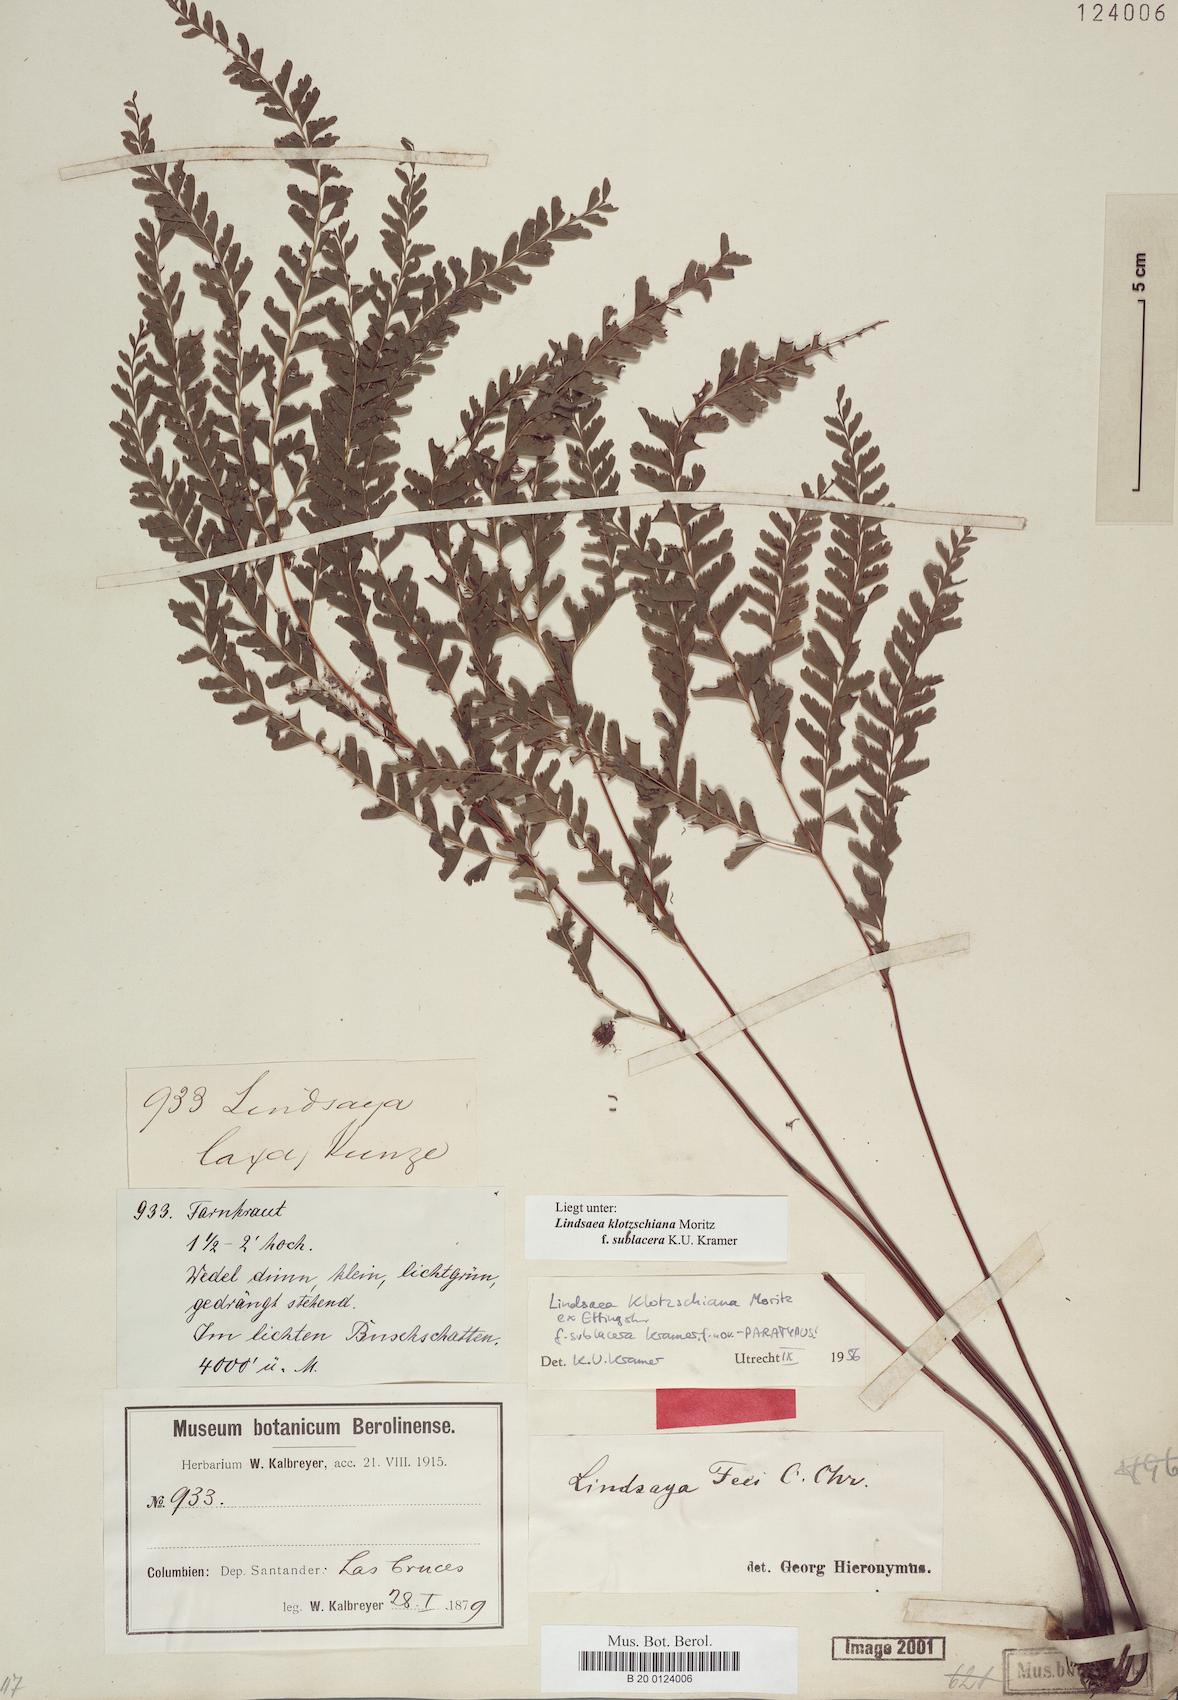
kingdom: Plantae
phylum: Tracheophyta
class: Polypodiopsida
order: Polypodiales
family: Lindsaeaceae
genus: Lindsaea
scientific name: Lindsaea feei
